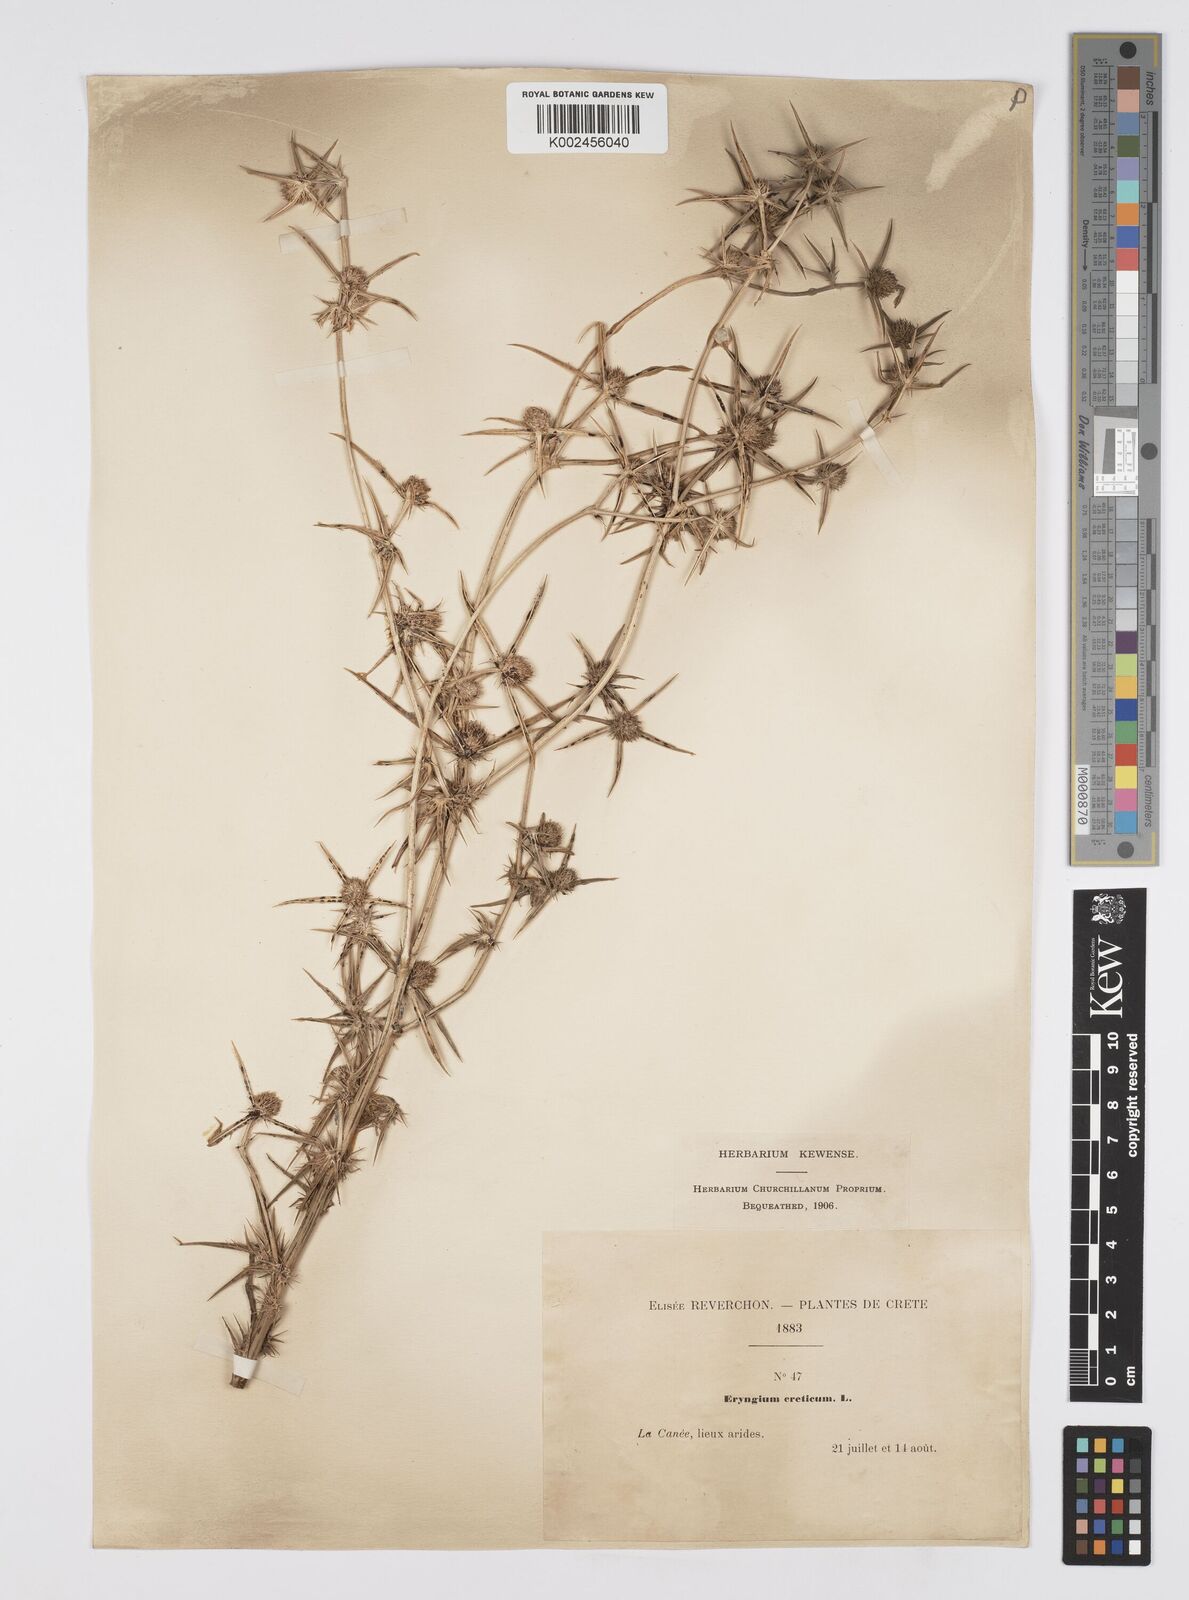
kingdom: Plantae
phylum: Tracheophyta
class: Magnoliopsida
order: Apiales
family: Apiaceae
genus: Eryngium
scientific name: Eryngium creticum
